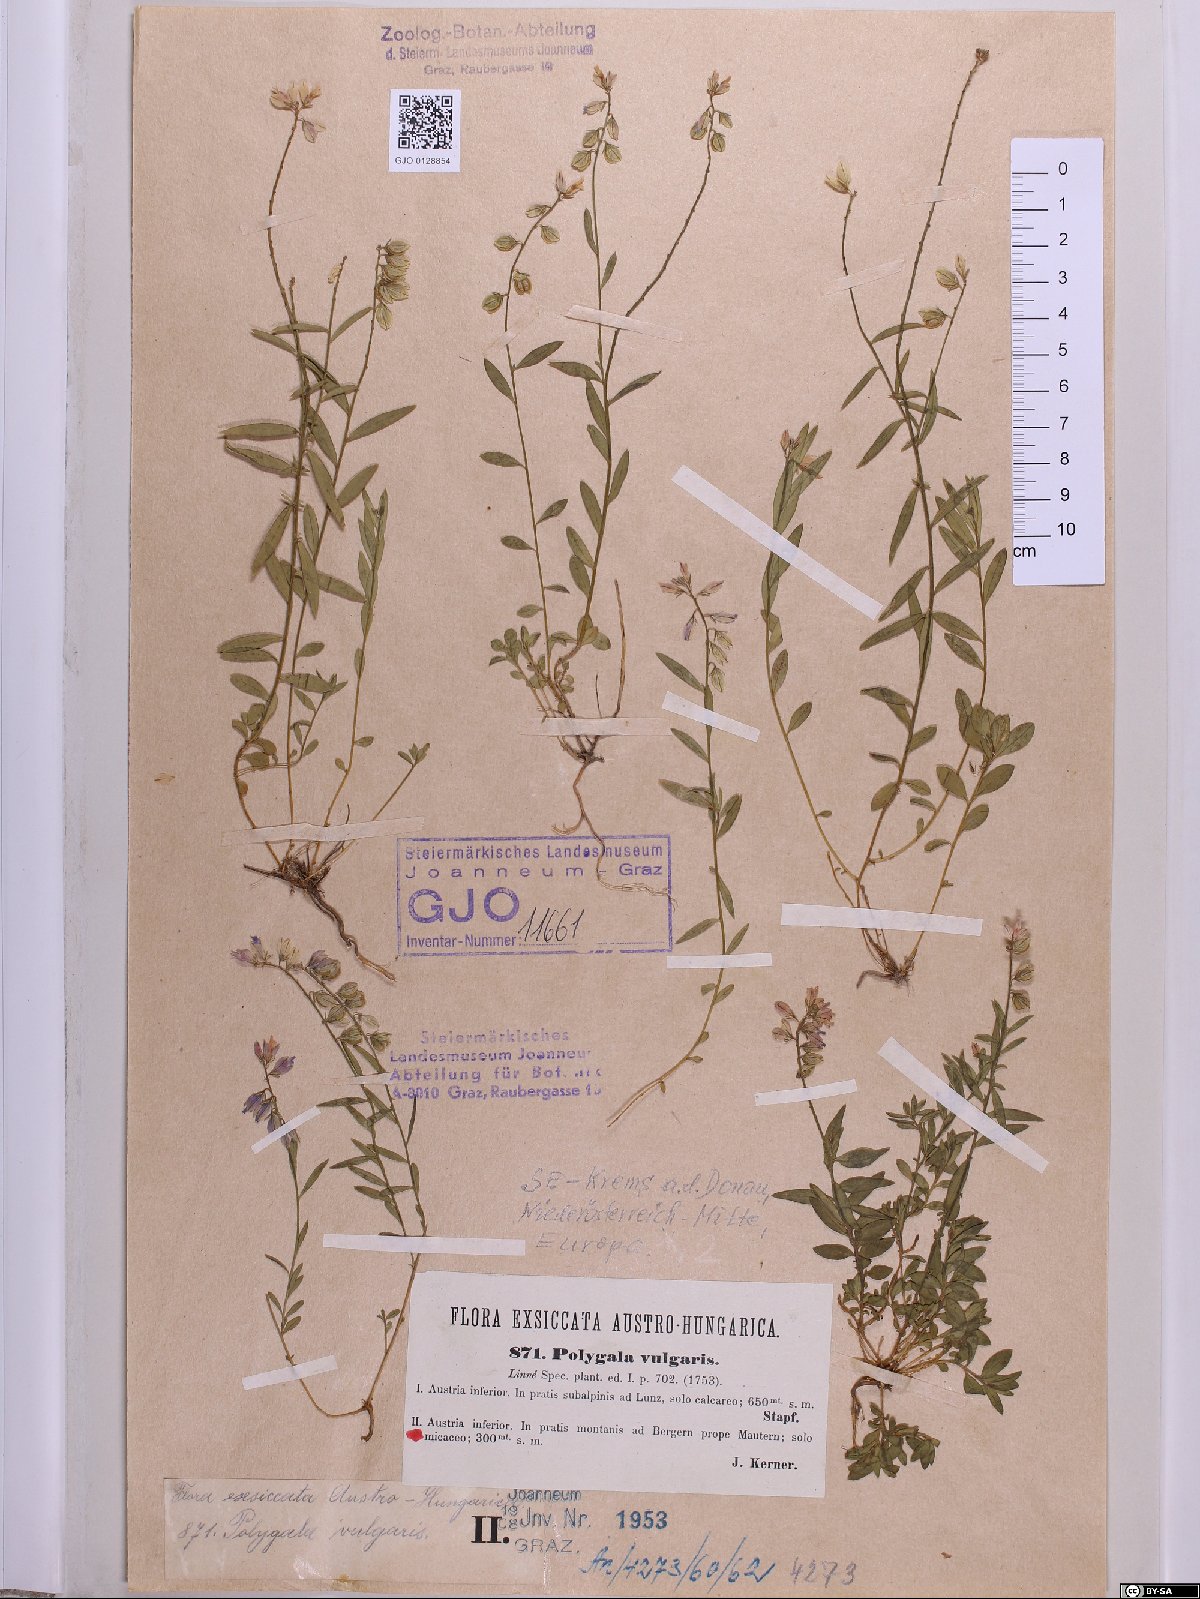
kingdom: Plantae
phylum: Tracheophyta
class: Magnoliopsida
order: Fabales
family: Polygalaceae
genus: Polygala
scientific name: Polygala vulgaris
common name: Common milkwort
